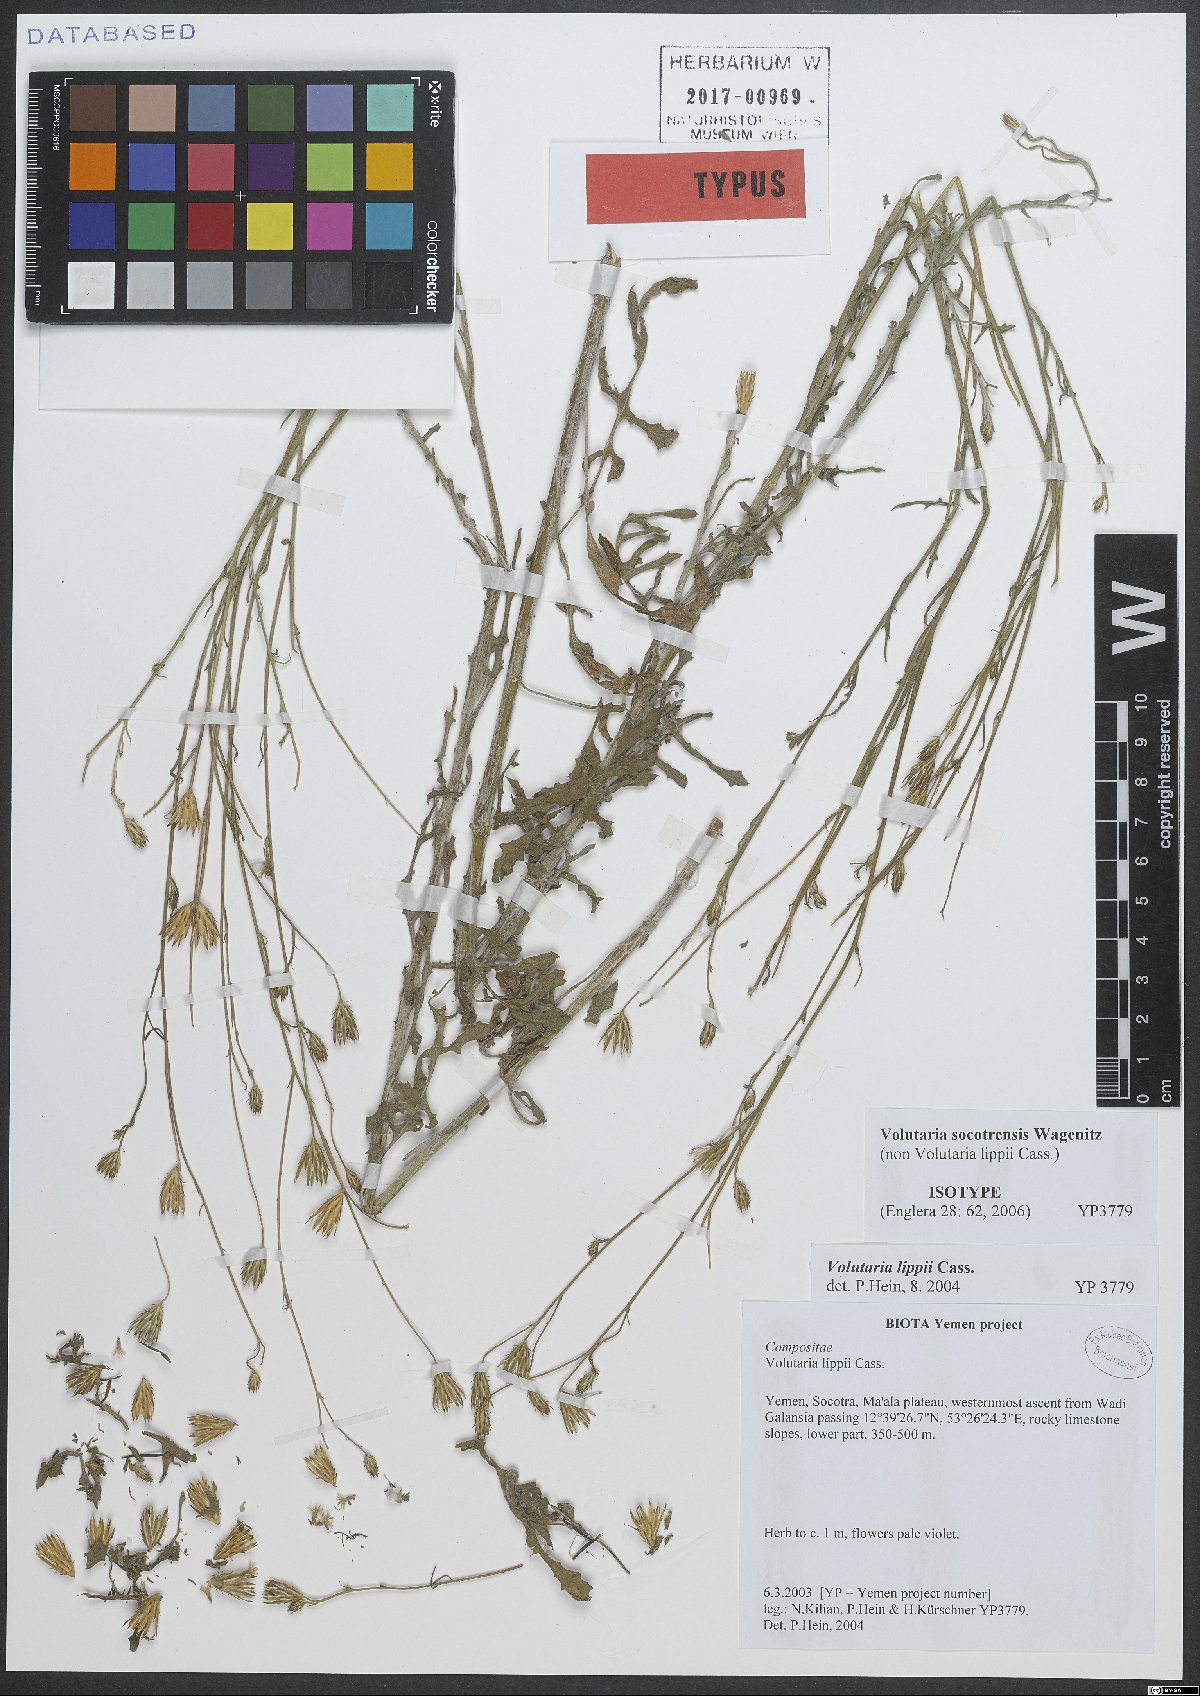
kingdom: Plantae
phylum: Tracheophyta
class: Magnoliopsida
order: Asterales
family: Asteraceae
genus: Volutaria
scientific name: Volutaria socotrensis
